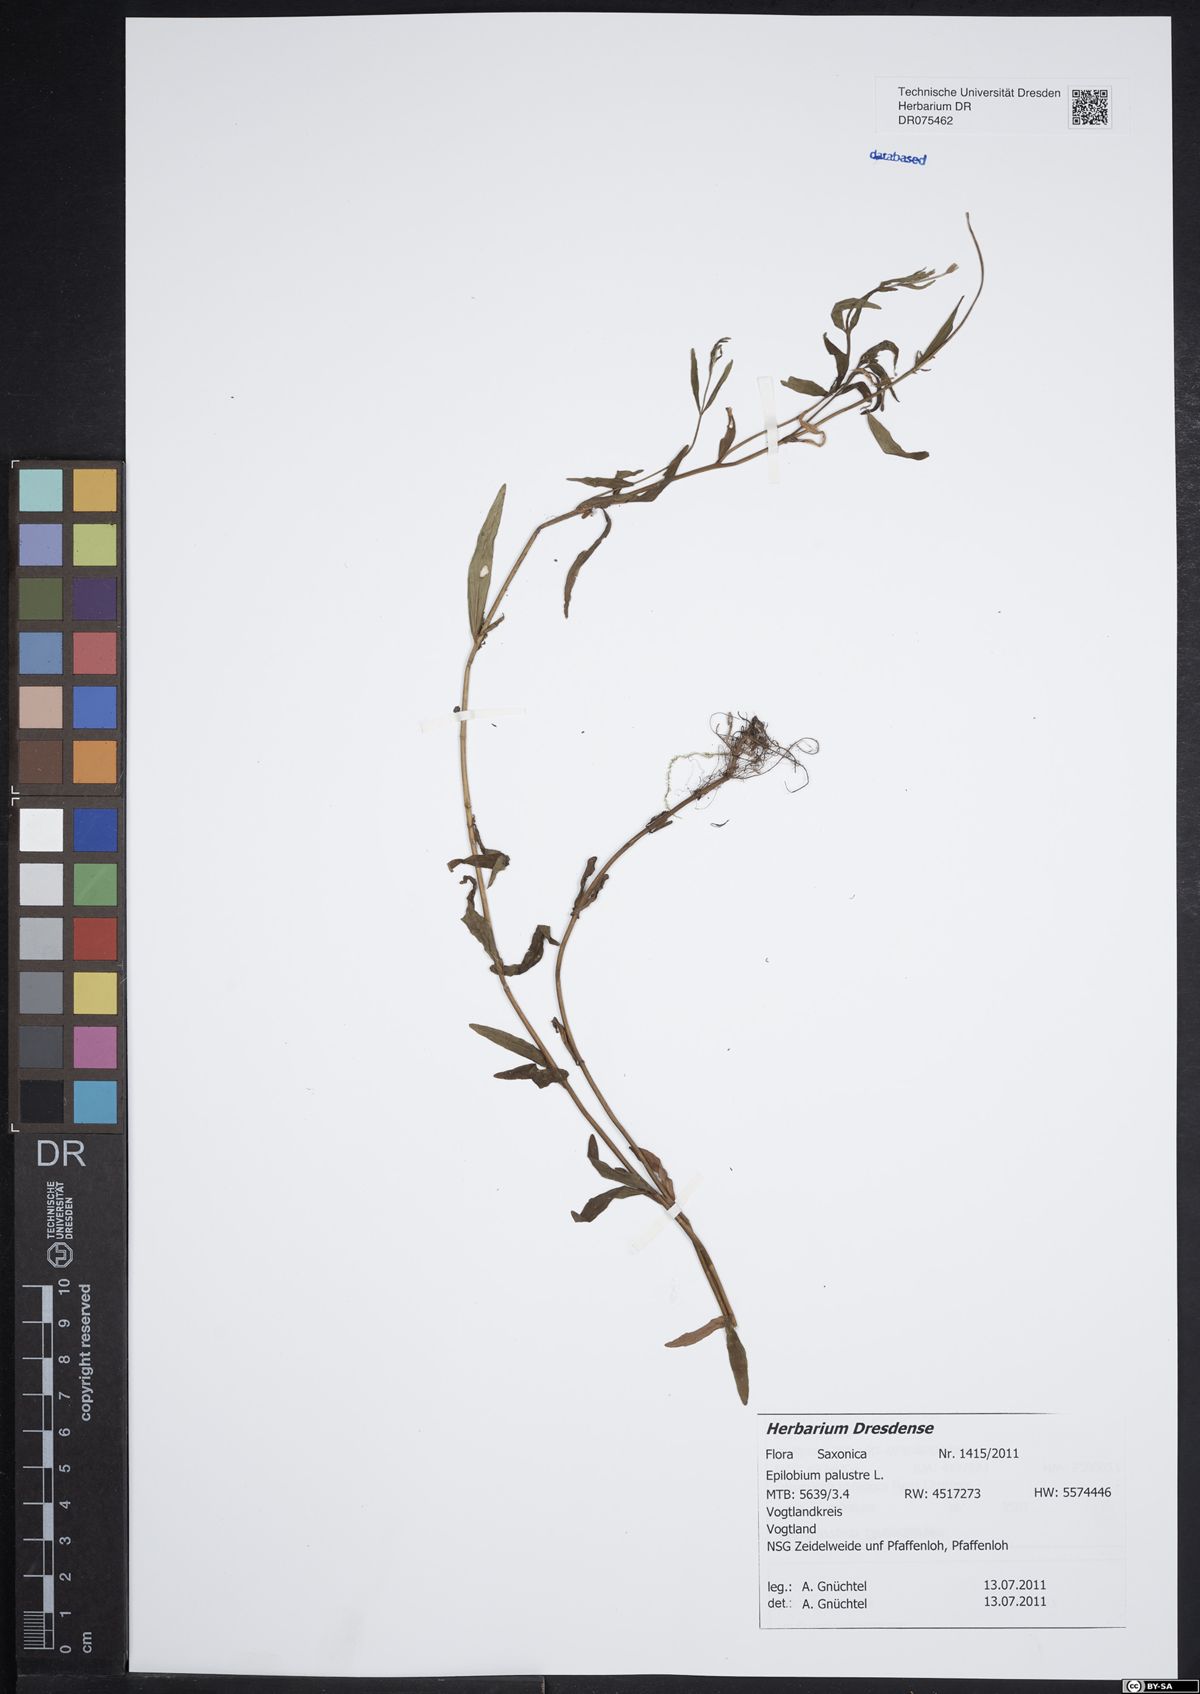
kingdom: Plantae
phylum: Tracheophyta
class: Magnoliopsida
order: Myrtales
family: Onagraceae
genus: Epilobium
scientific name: Epilobium palustre
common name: Marsh willowherb
